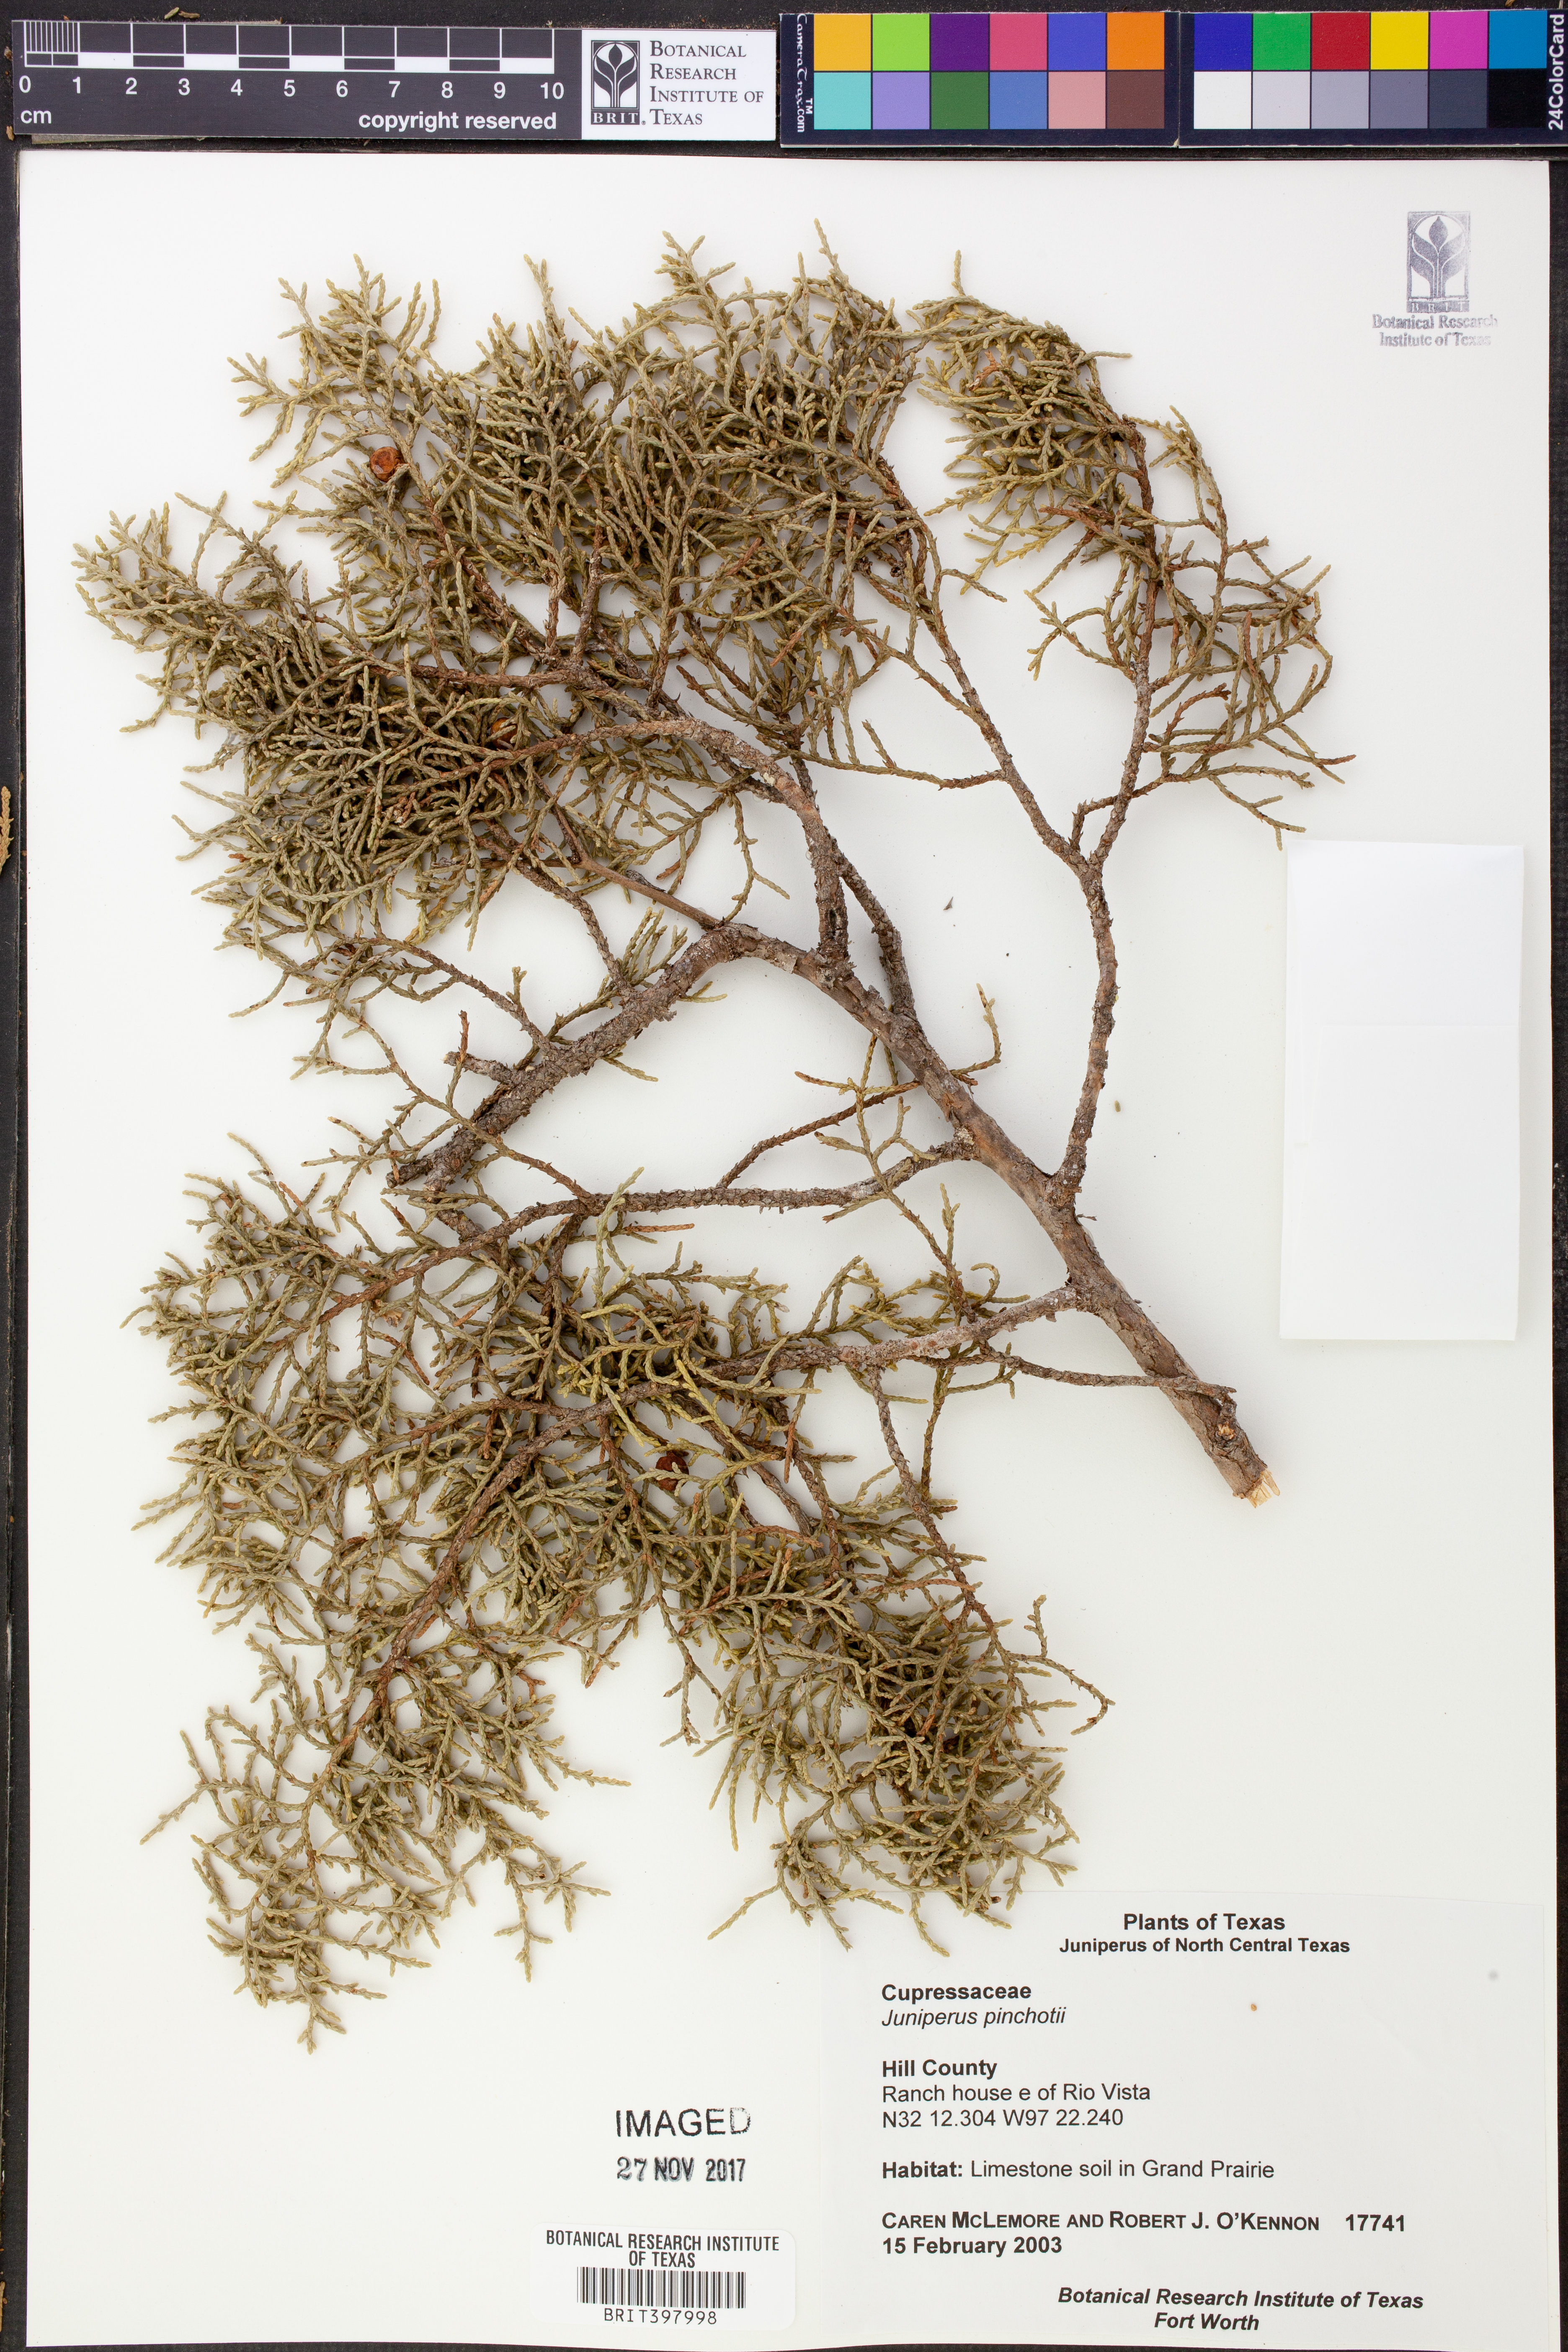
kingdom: Plantae
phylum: Tracheophyta
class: Pinopsida
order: Pinales
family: Cupressaceae
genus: Juniperus
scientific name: Juniperus pinchotii
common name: Pinchot juniper
